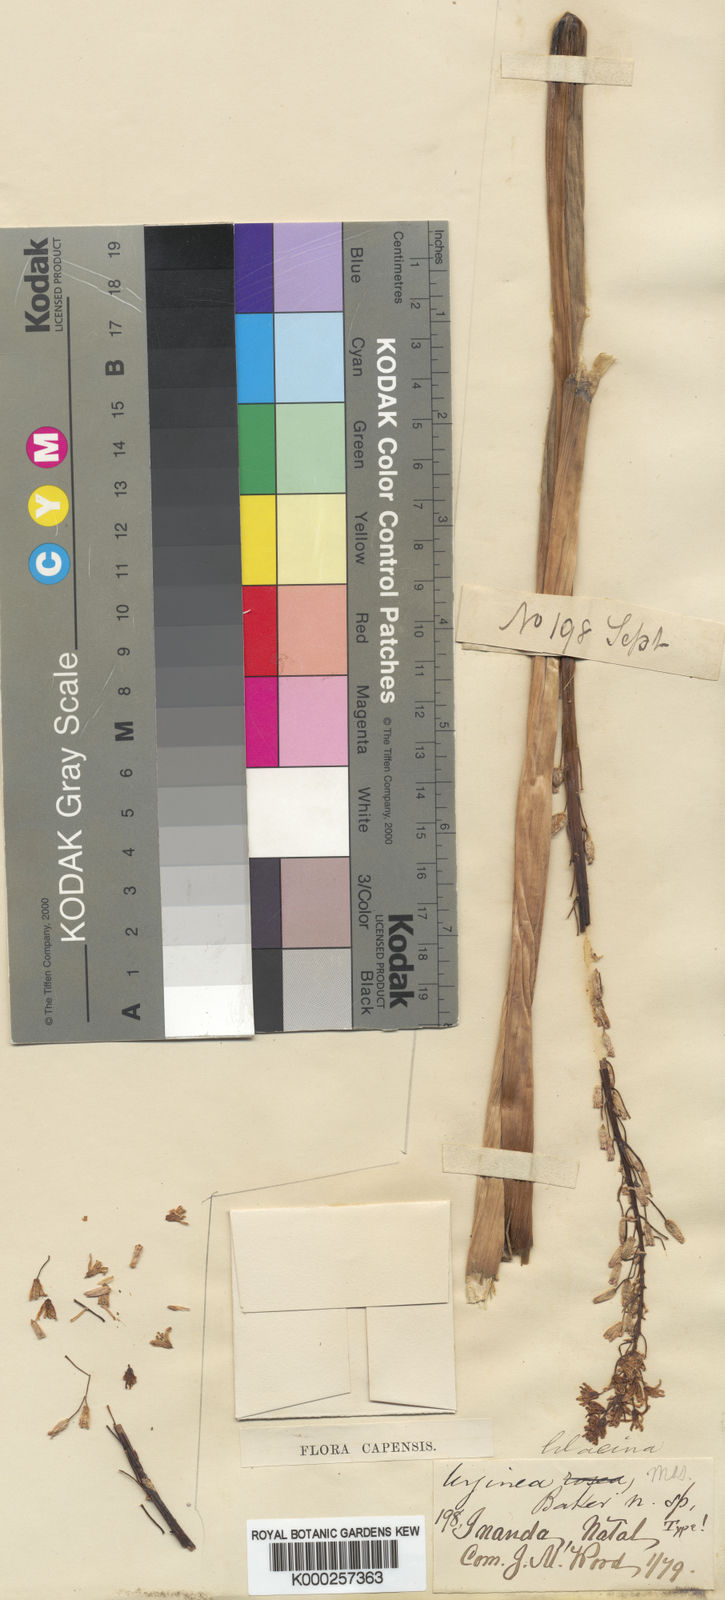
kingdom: Plantae
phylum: Tracheophyta
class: Liliopsida
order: Asparagales
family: Asparagaceae
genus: Drimia
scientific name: Drimia macrocentra
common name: Natal slangkop
